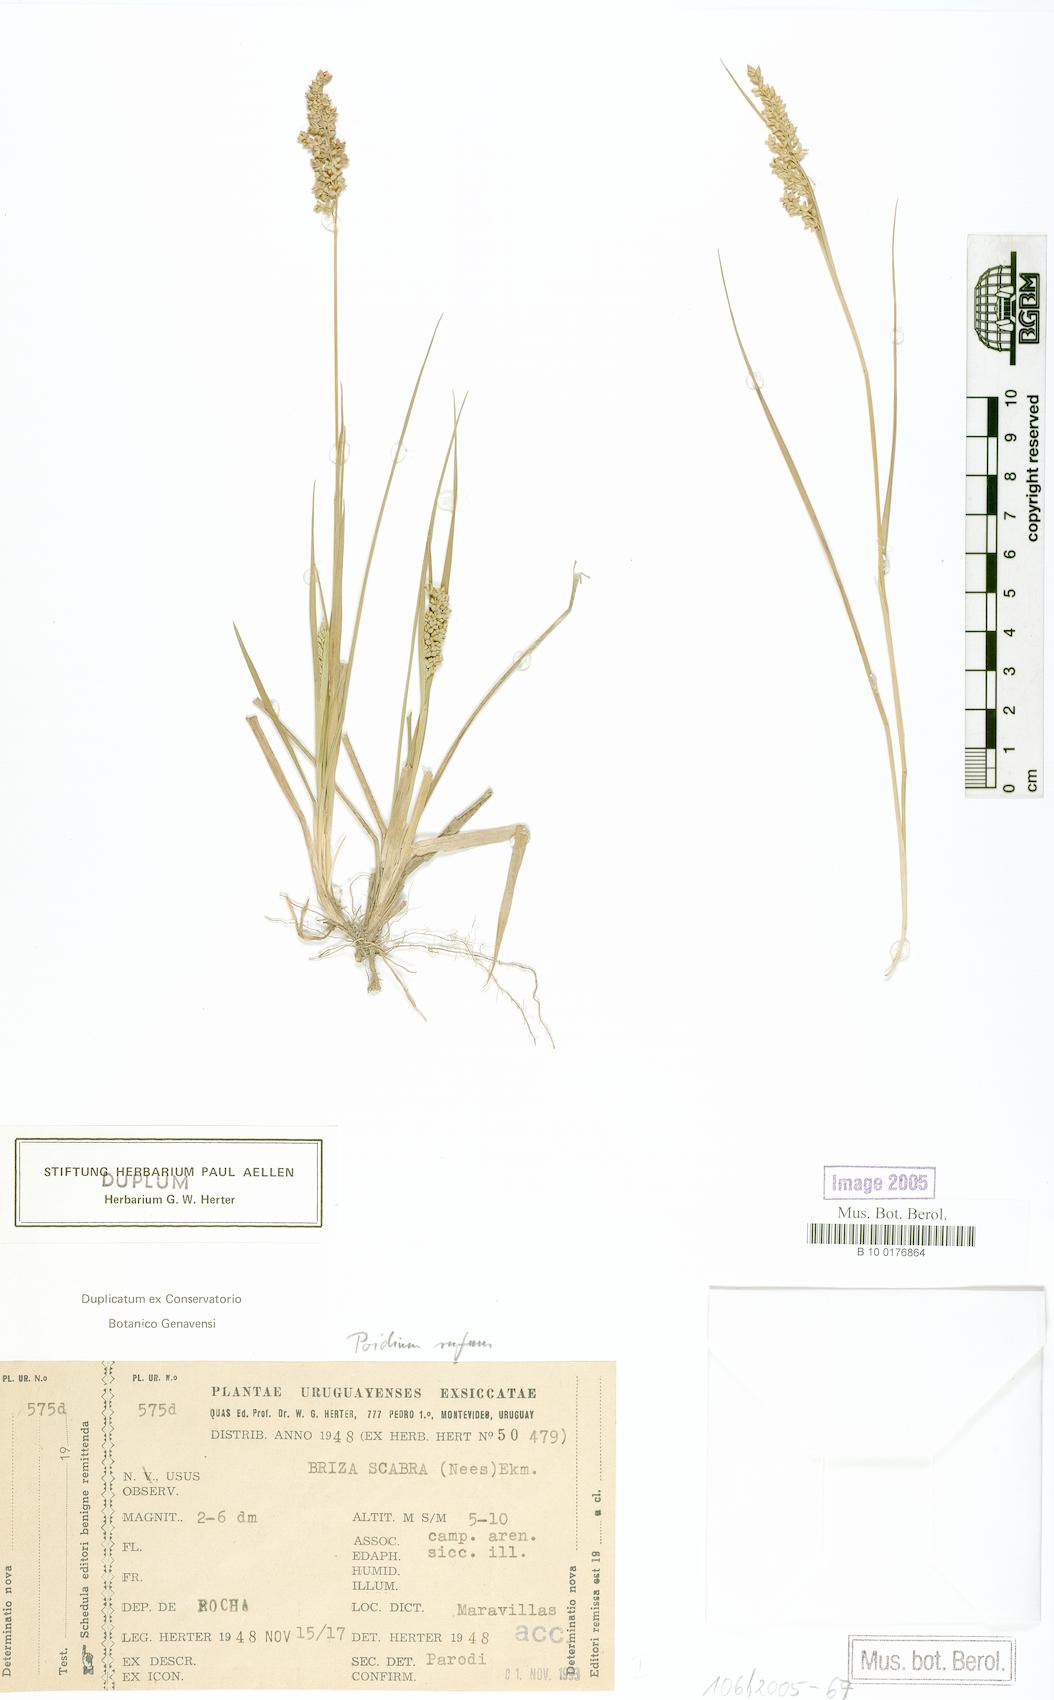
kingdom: Plantae
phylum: Tracheophyta
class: Liliopsida
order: Poales
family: Poaceae
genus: Lombardochloa
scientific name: Lombardochloa rufa
